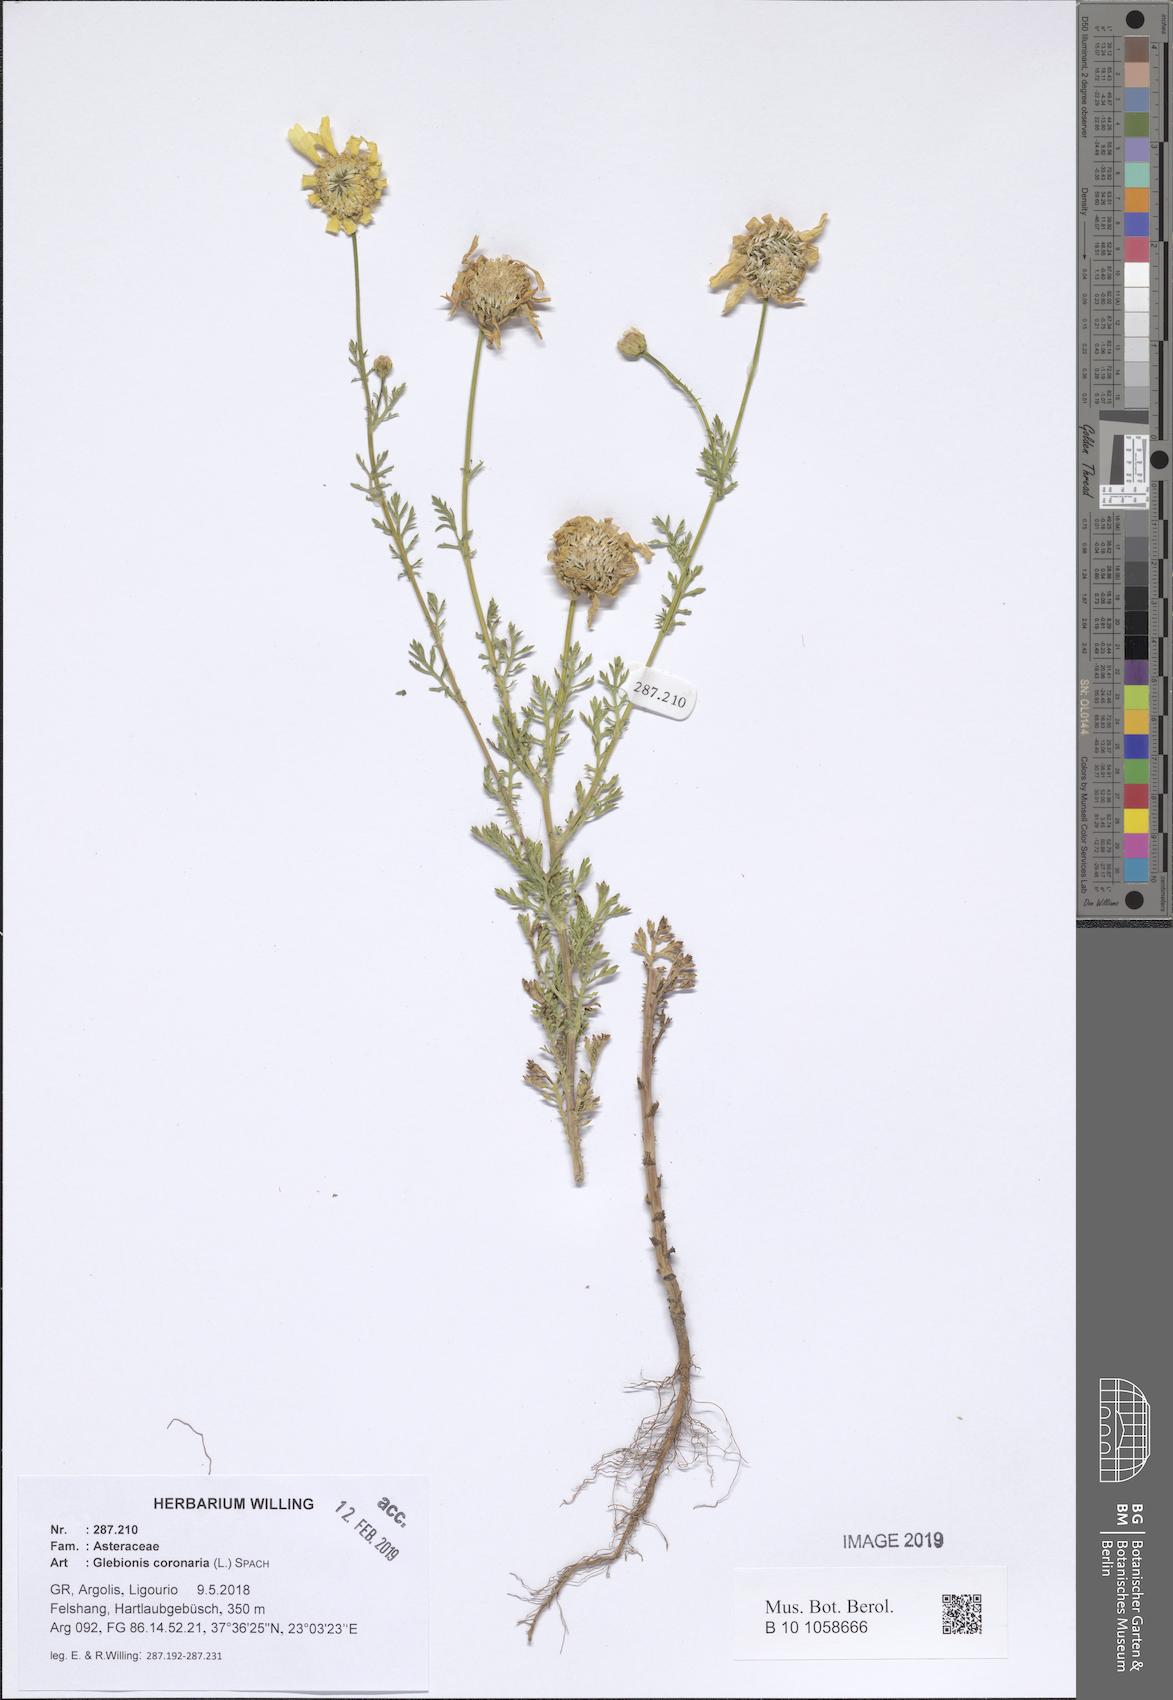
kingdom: Plantae
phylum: Tracheophyta
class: Magnoliopsida
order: Asterales
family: Asteraceae
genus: Glebionis
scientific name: Glebionis coronaria
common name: Crowndaisy
